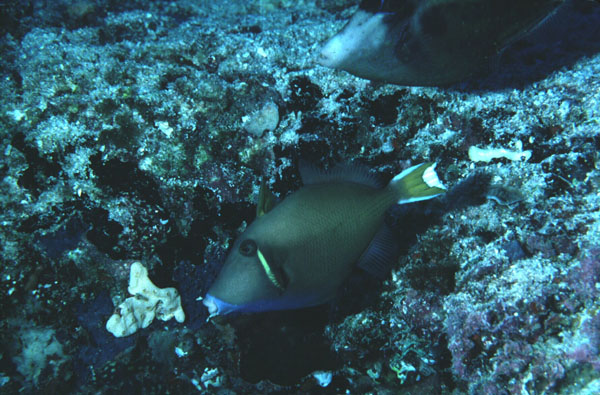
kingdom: Animalia
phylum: Chordata
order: Tetraodontiformes
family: Balistidae
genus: Sufflamen
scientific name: Sufflamen chrysopterum
